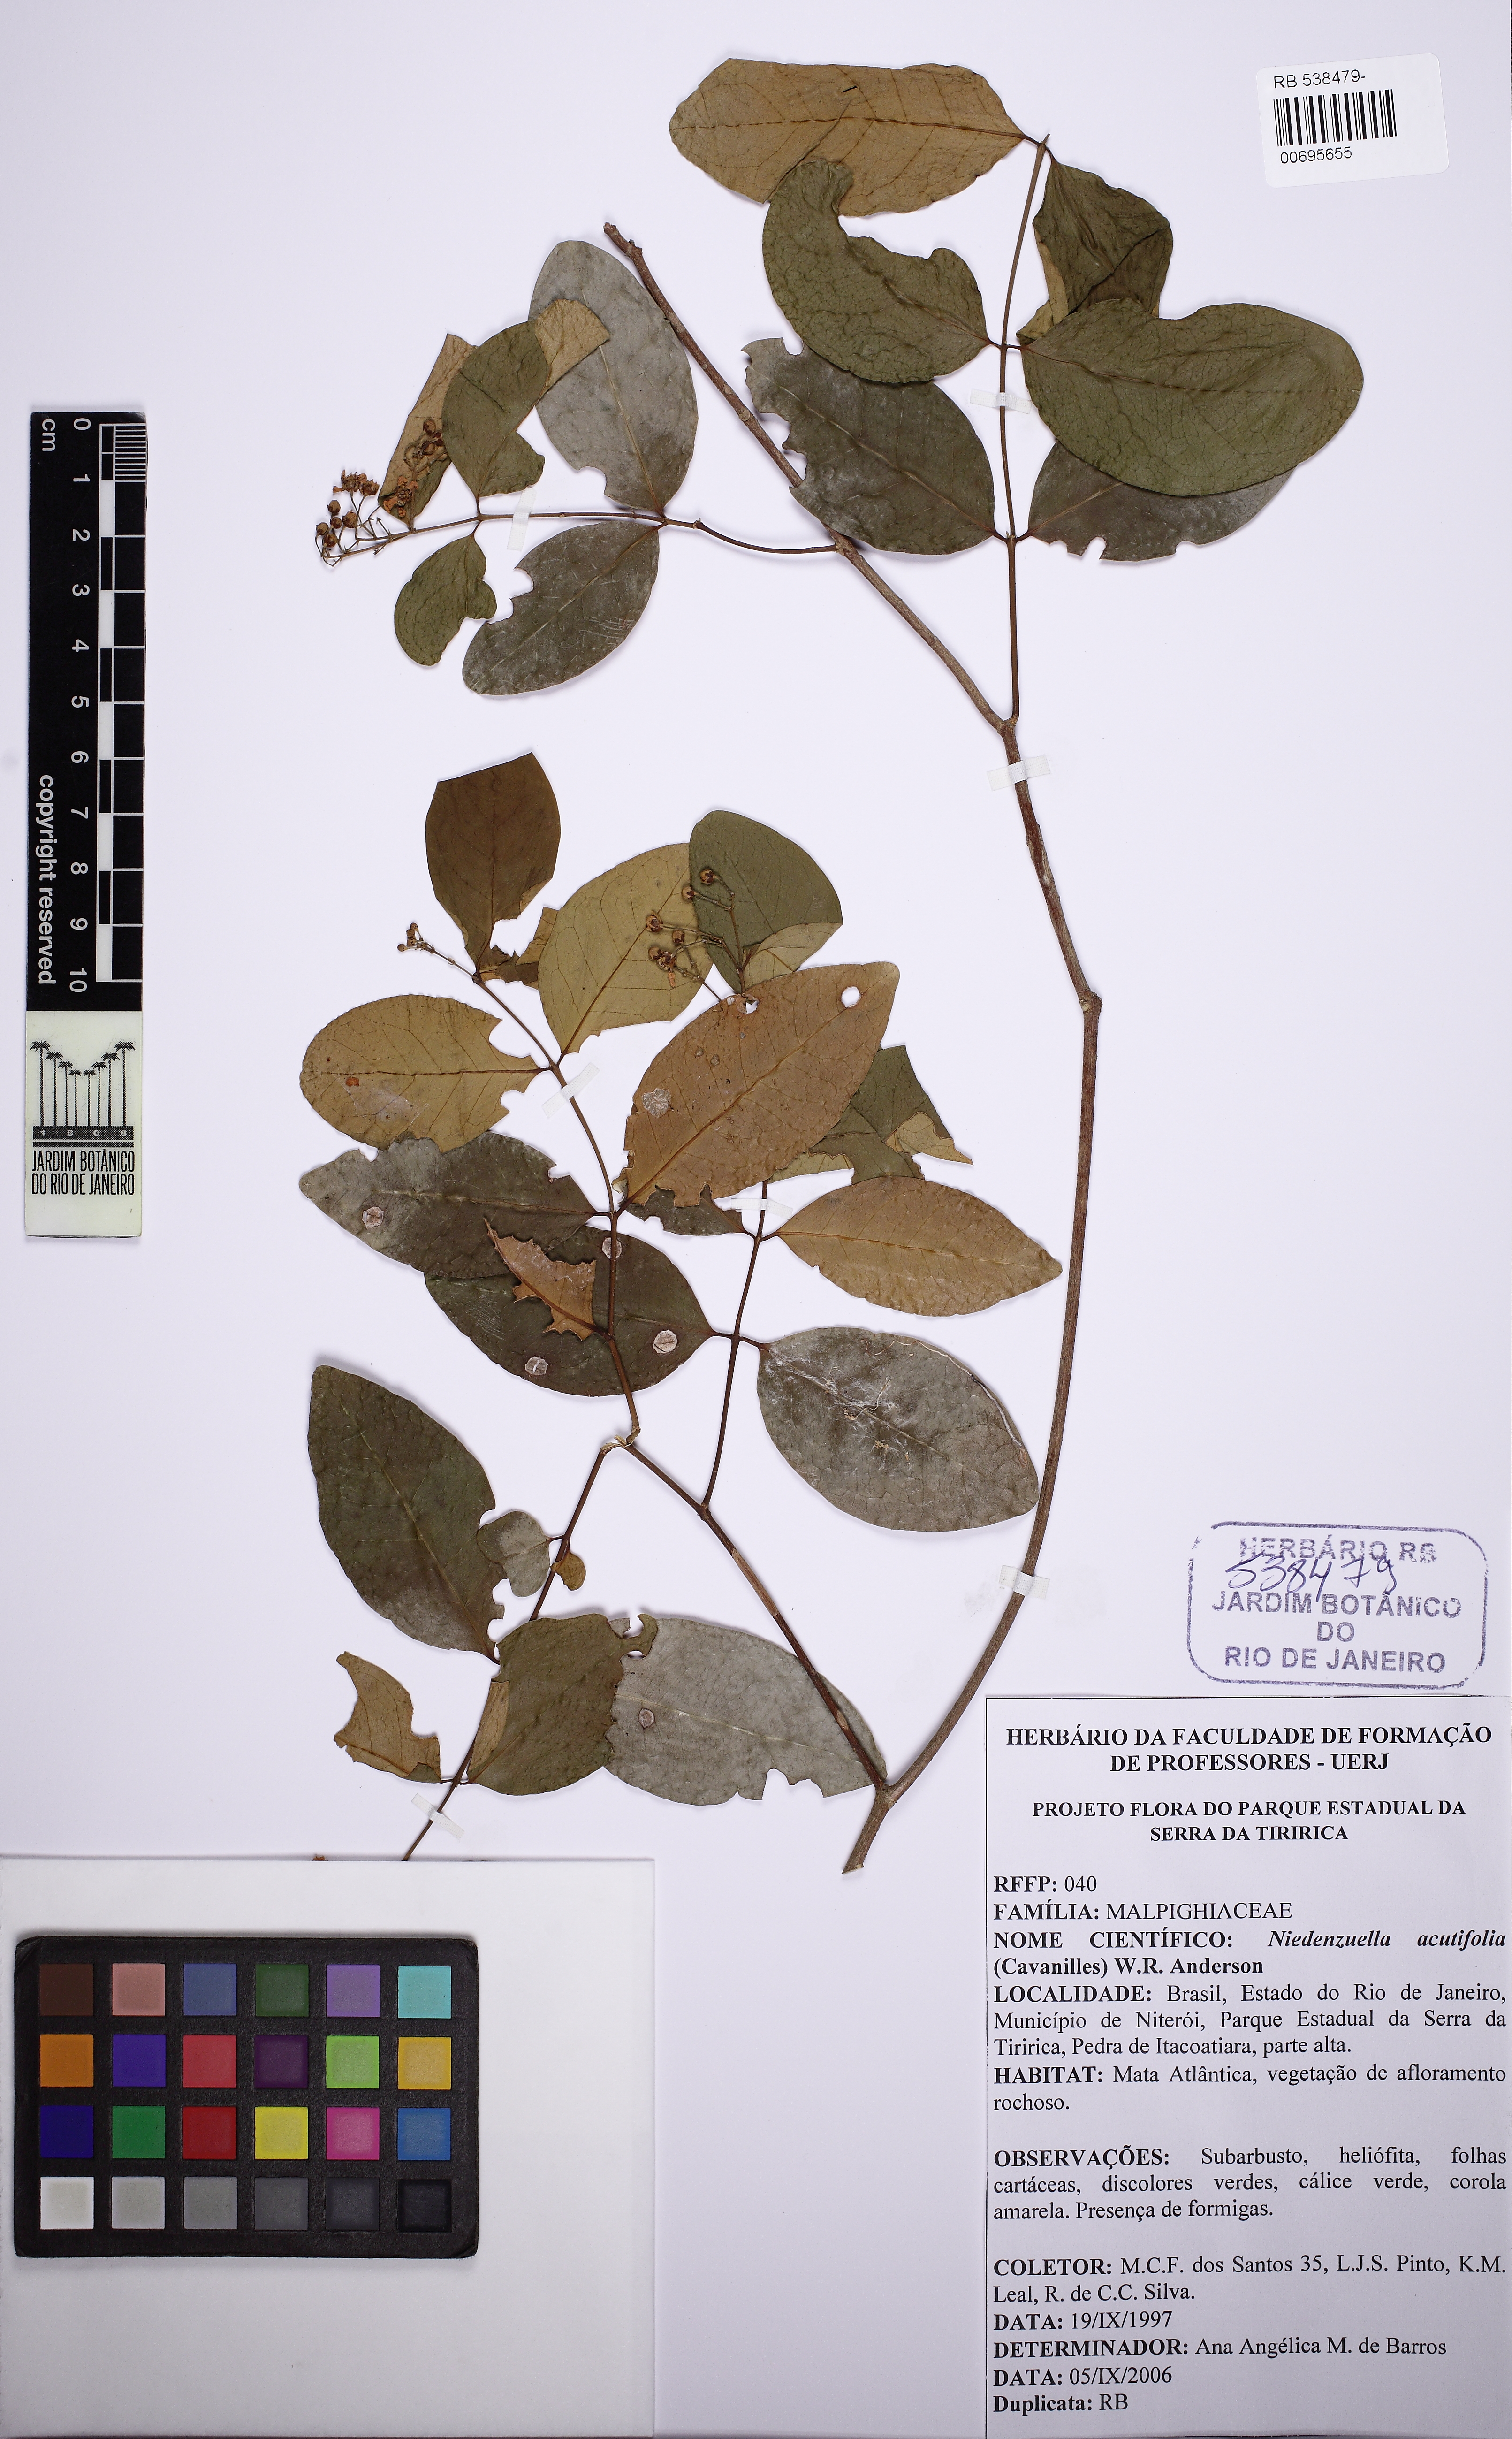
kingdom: Plantae
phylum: Tracheophyta
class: Magnoliopsida
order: Malpighiales
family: Malpighiaceae
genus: Niedenzuella
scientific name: Niedenzuella acutifolia
